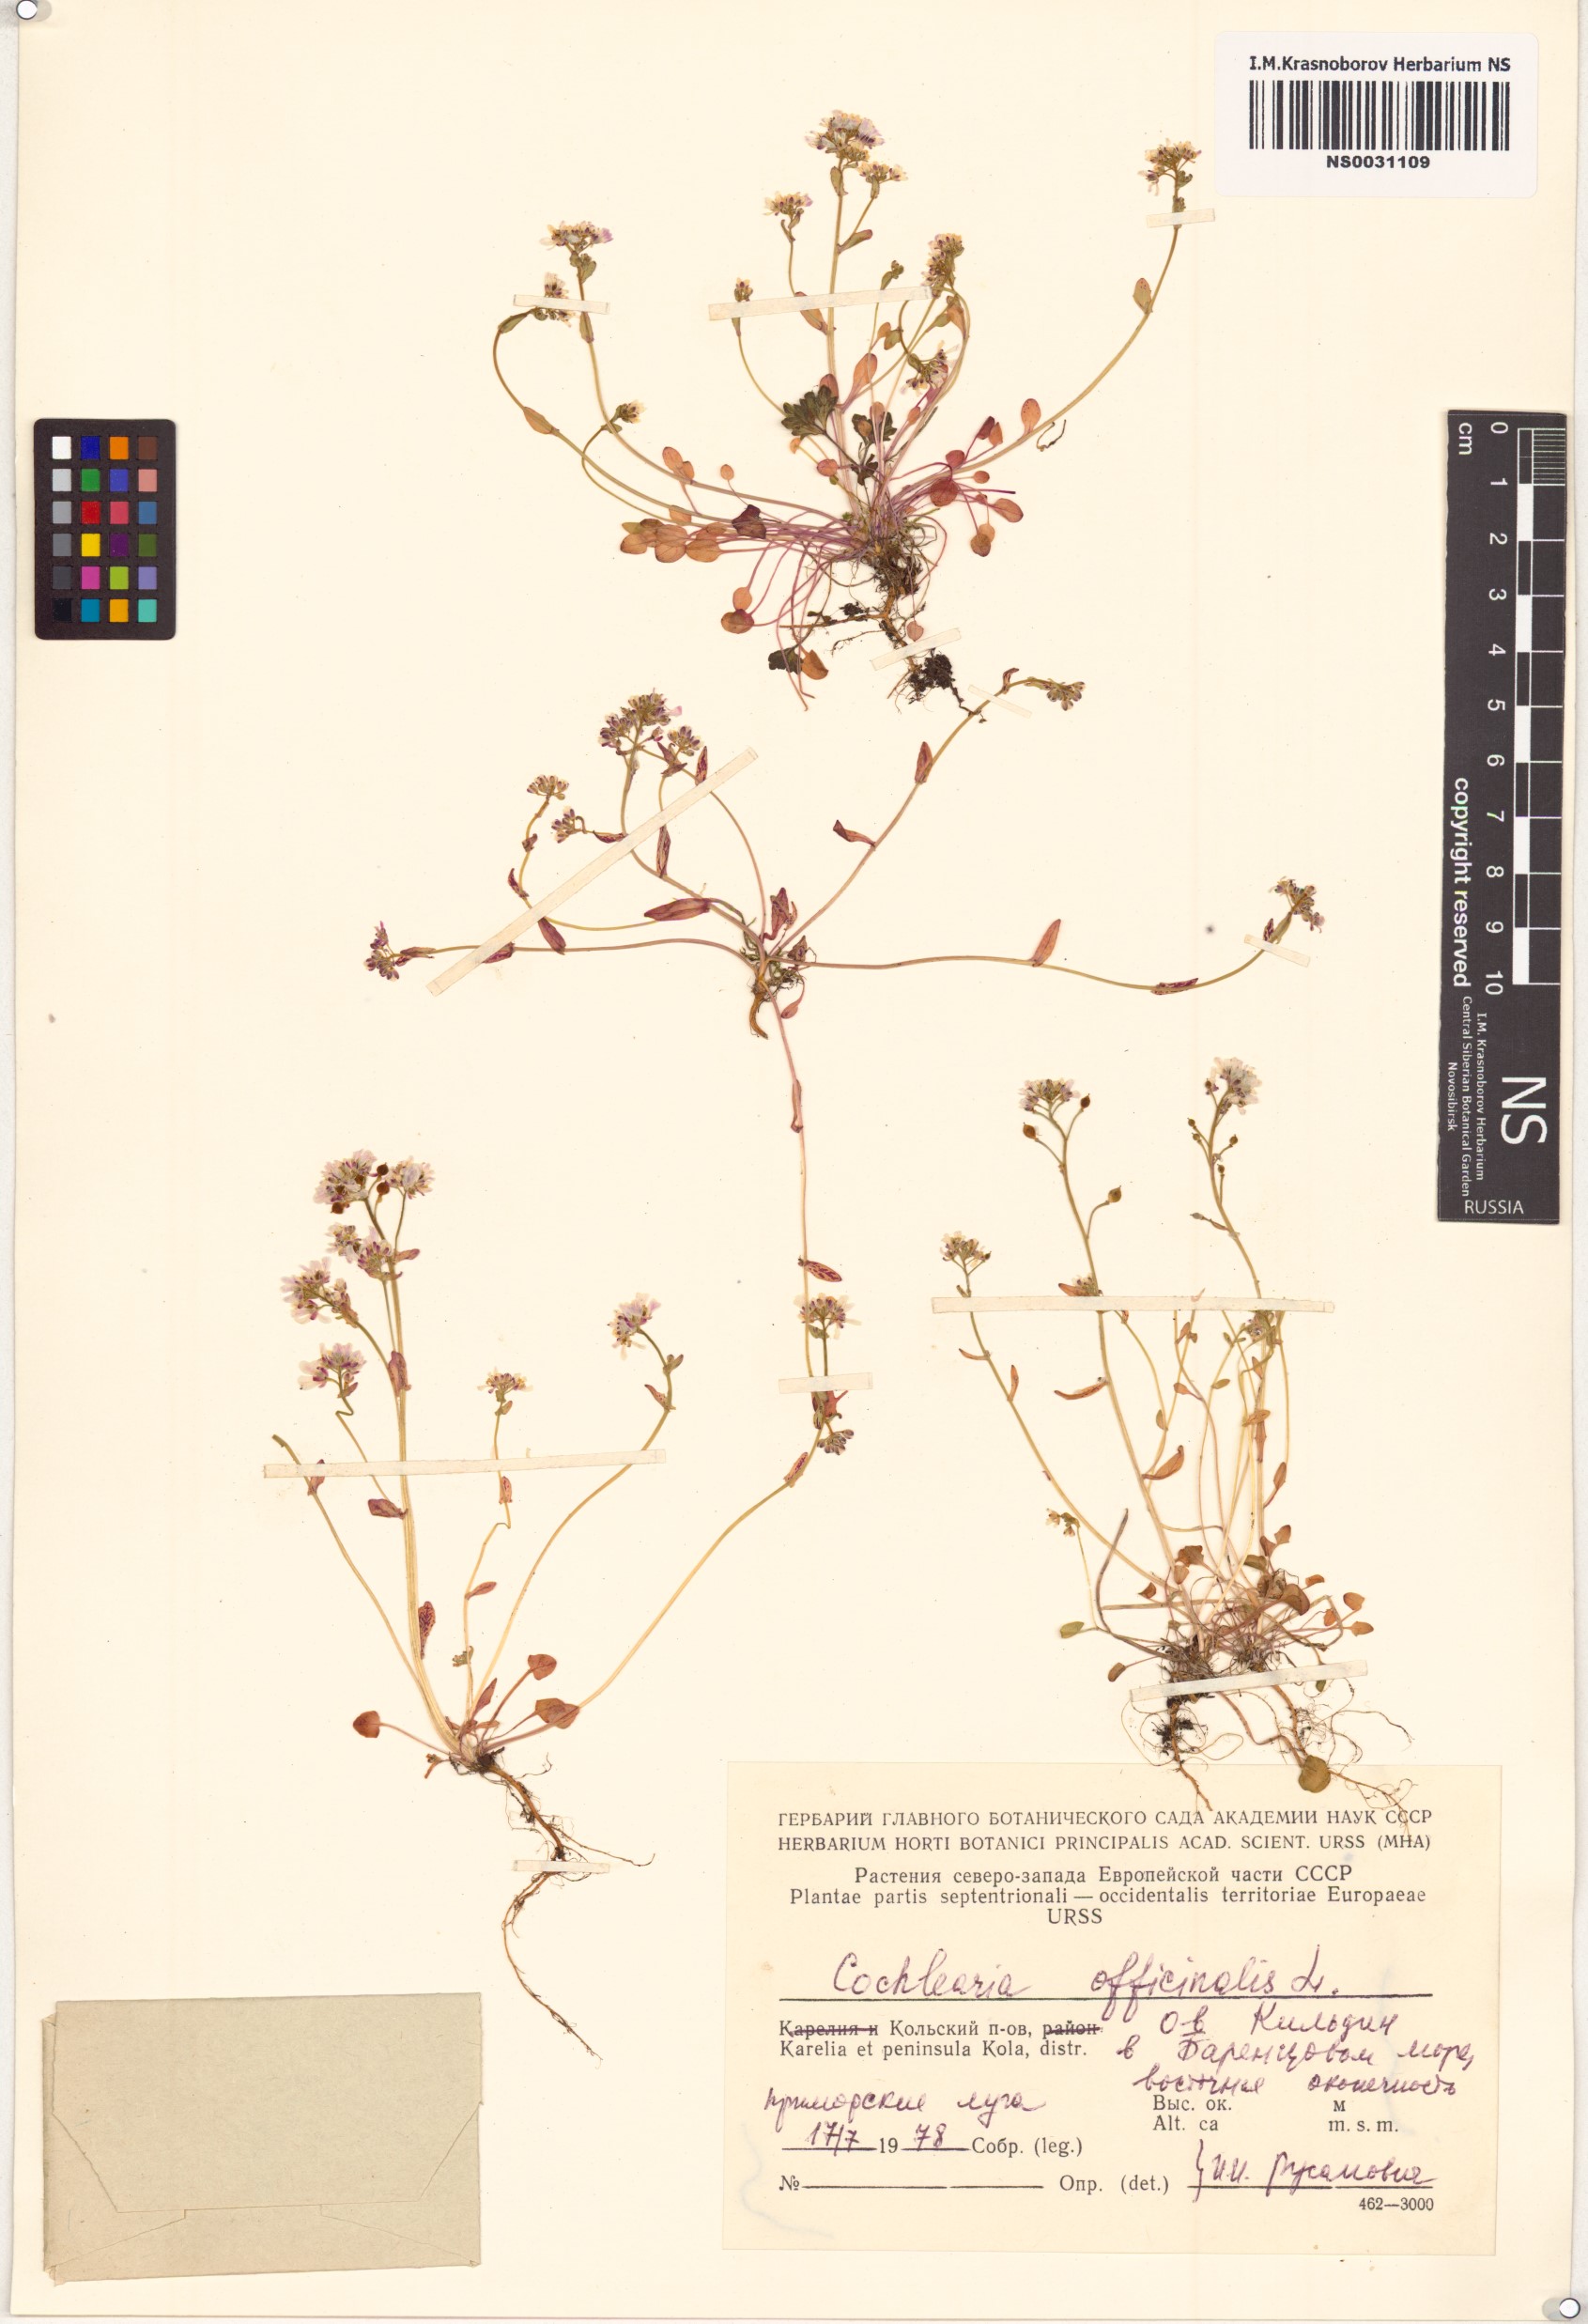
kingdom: Plantae
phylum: Tracheophyta
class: Magnoliopsida
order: Brassicales
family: Brassicaceae
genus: Cochlearia
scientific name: Cochlearia officinalis
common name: Scurvy-grass
